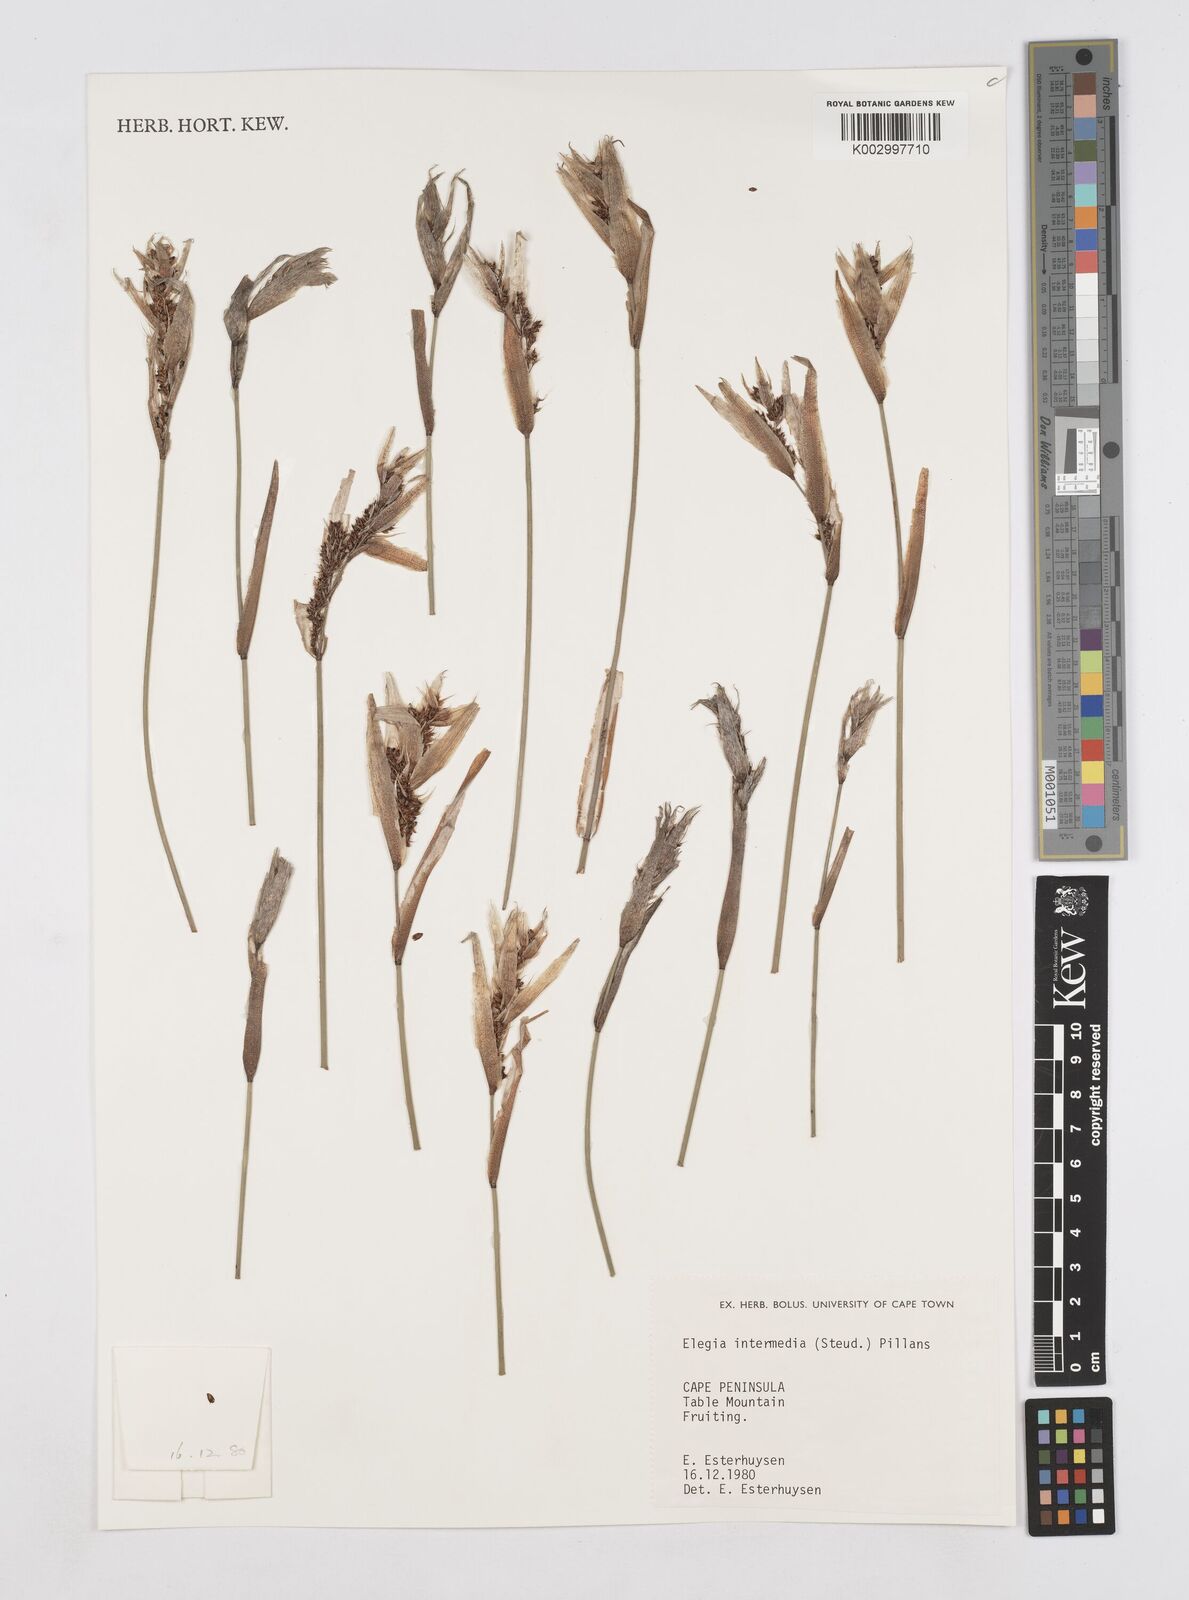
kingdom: Plantae
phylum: Tracheophyta
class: Liliopsida
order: Poales
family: Restionaceae
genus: Elegia
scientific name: Elegia intermedia
